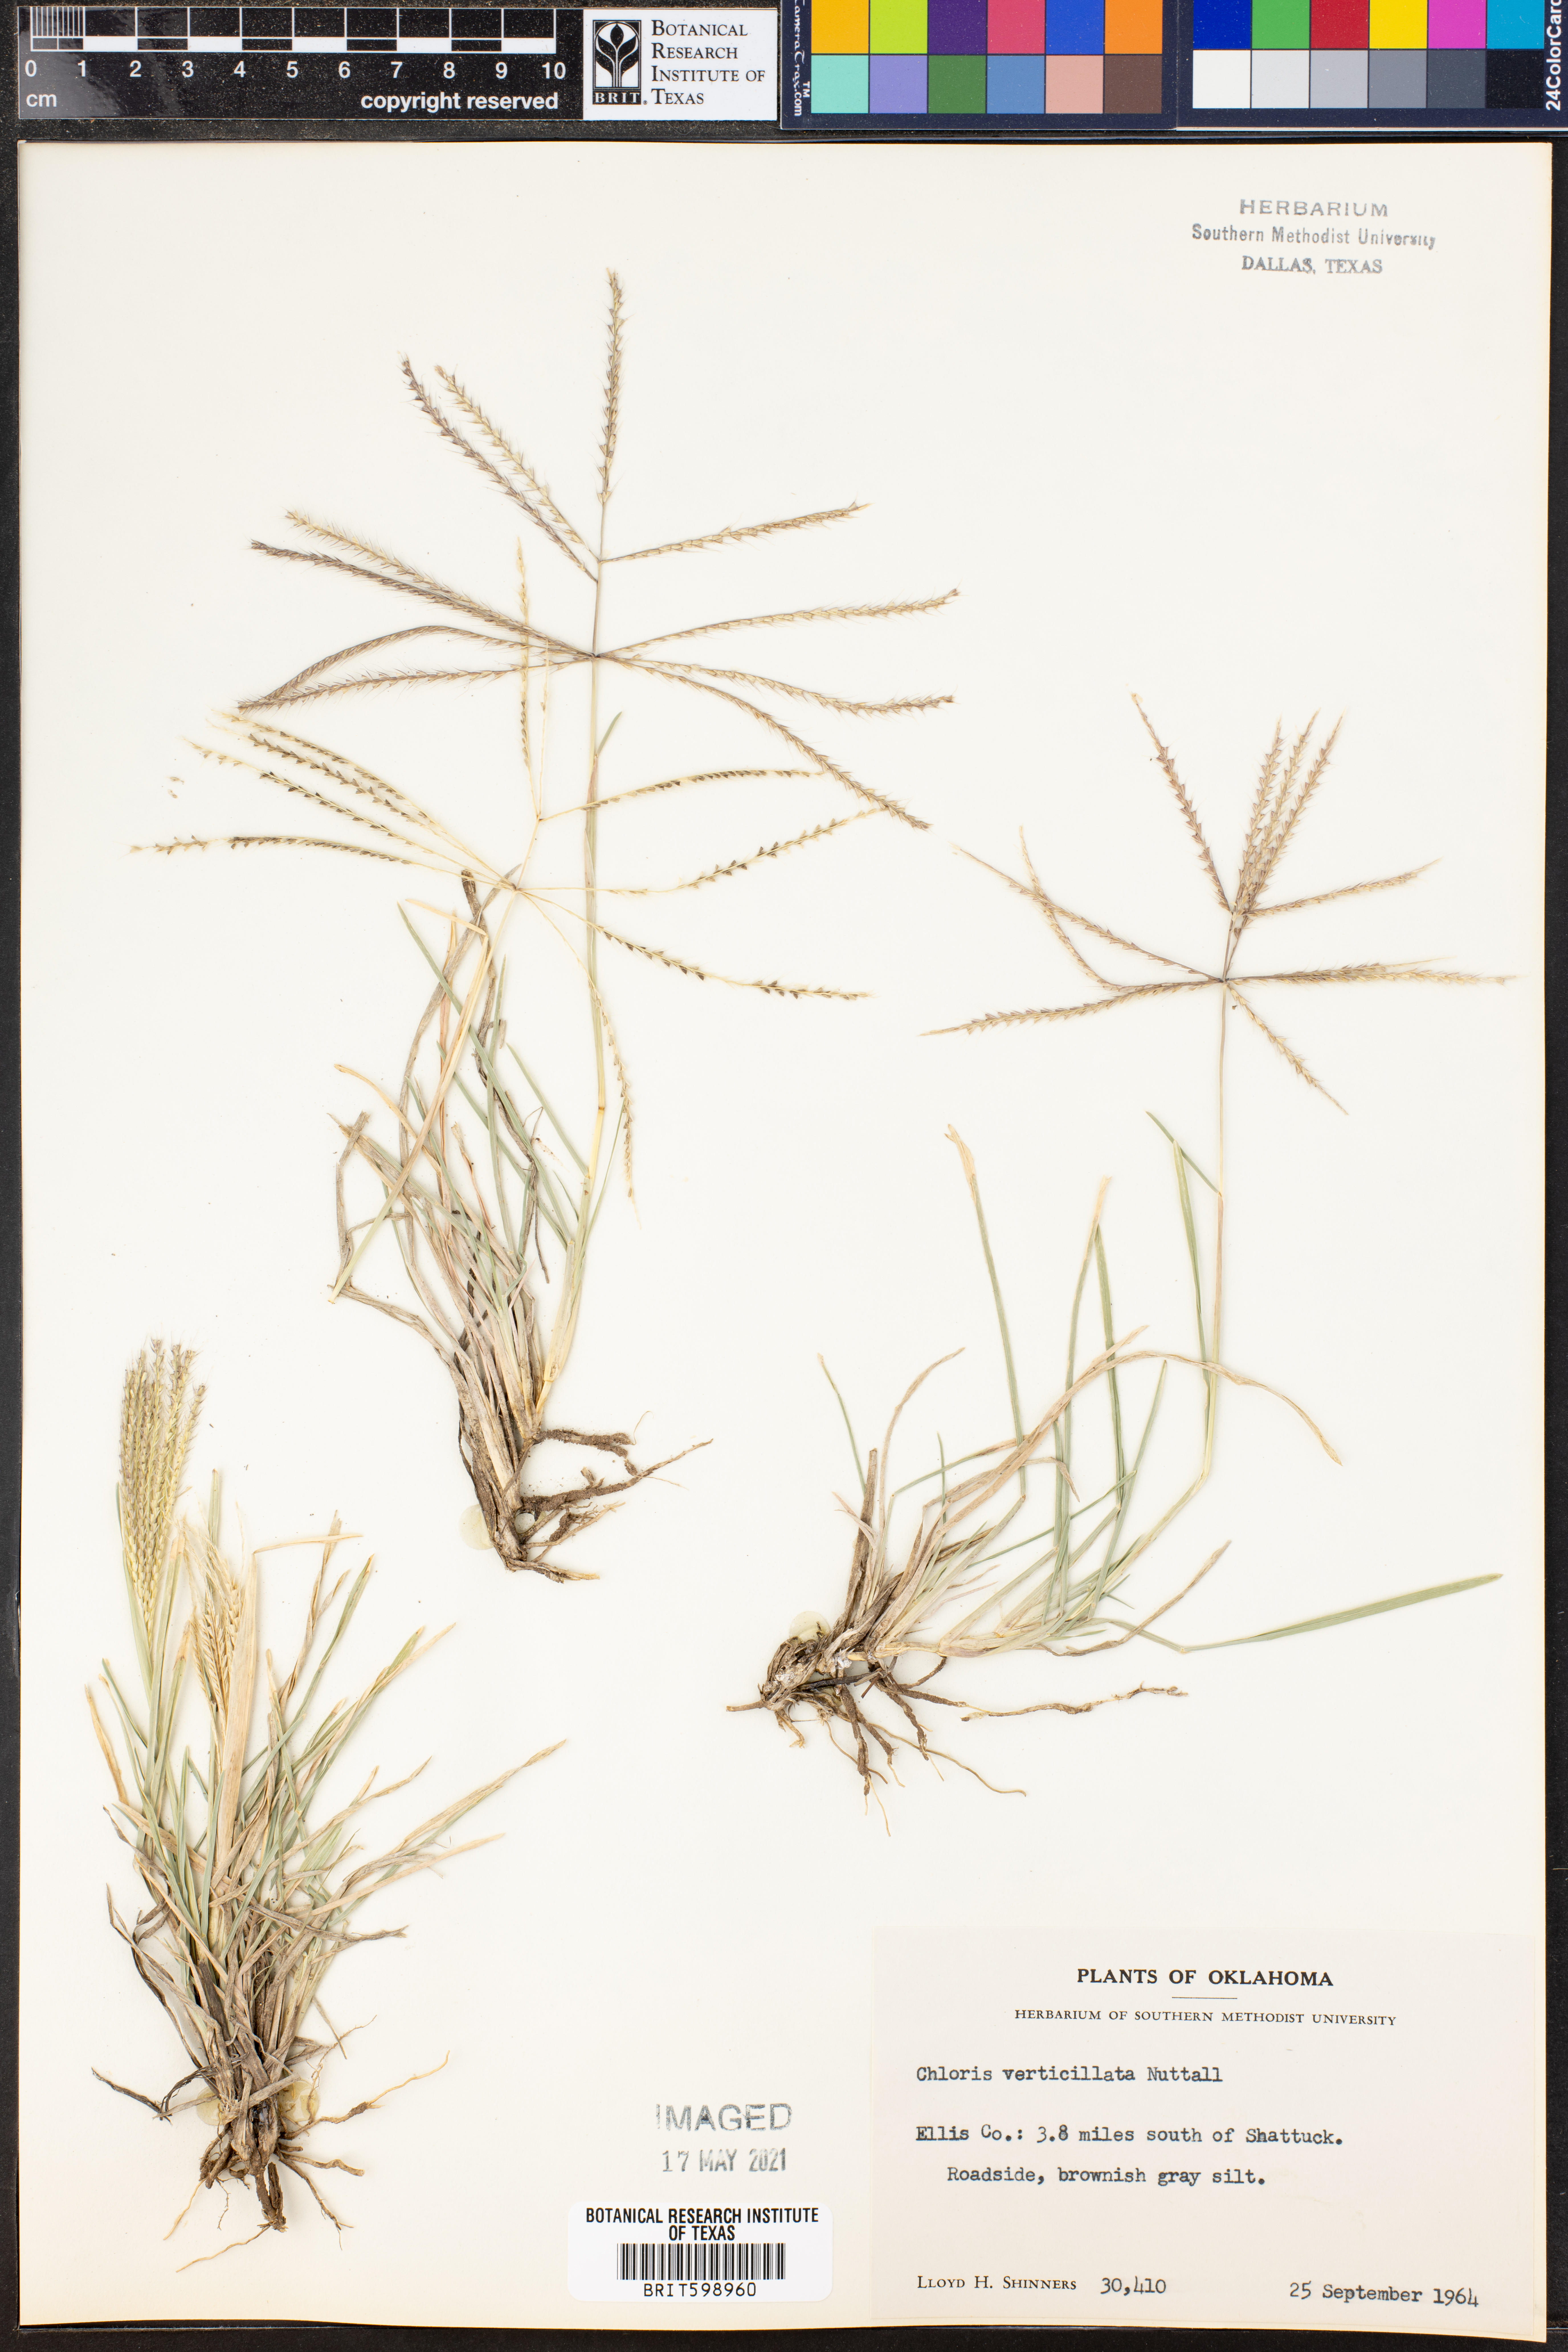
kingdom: Plantae
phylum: Tracheophyta
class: Liliopsida
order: Poales
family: Poaceae
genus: Chloris
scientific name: Chloris verticillata
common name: Tumble windmill grass
